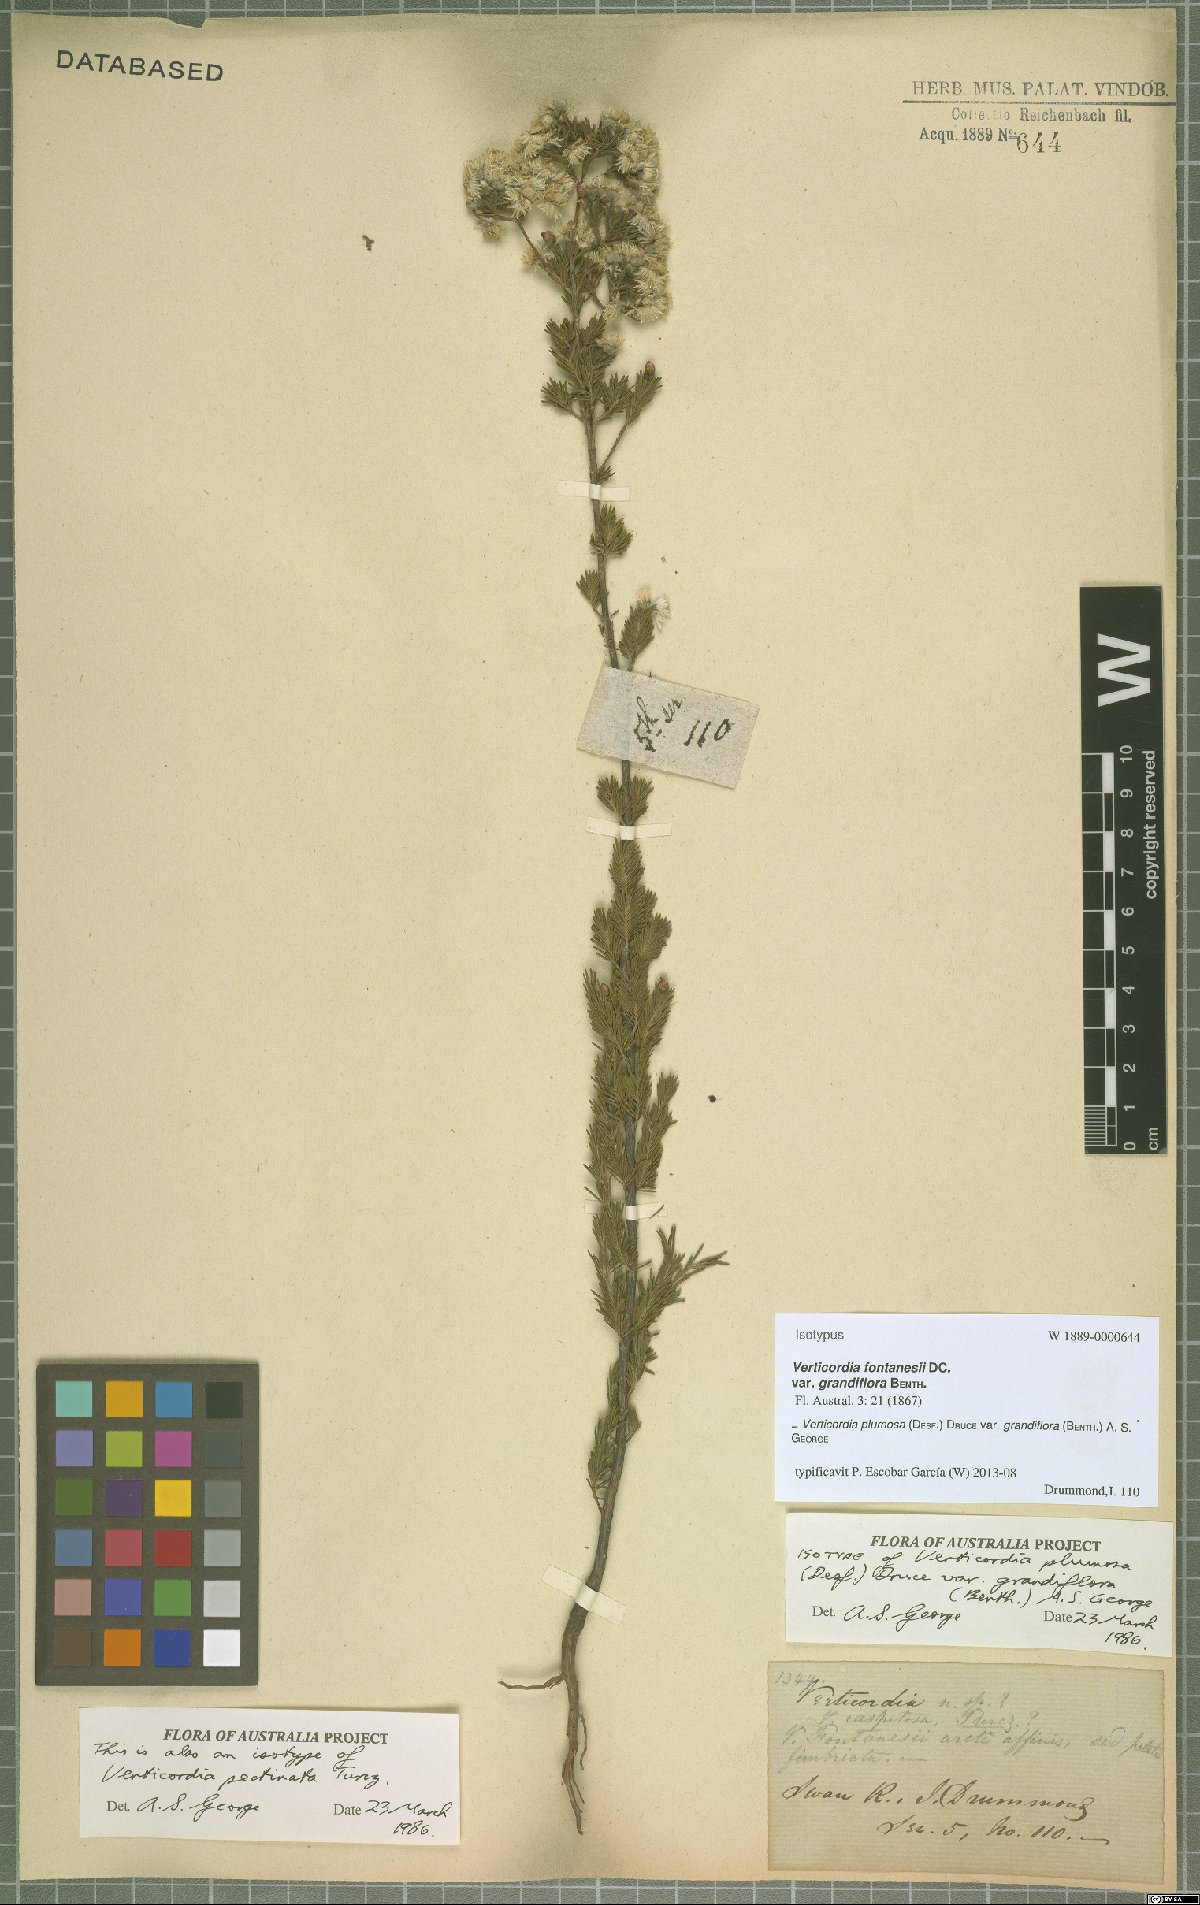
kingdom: Plantae
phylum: Tracheophyta
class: Magnoliopsida
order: Myrtales
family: Myrtaceae
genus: Verticordia
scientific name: Verticordia plumosa
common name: Plume feather-flower
